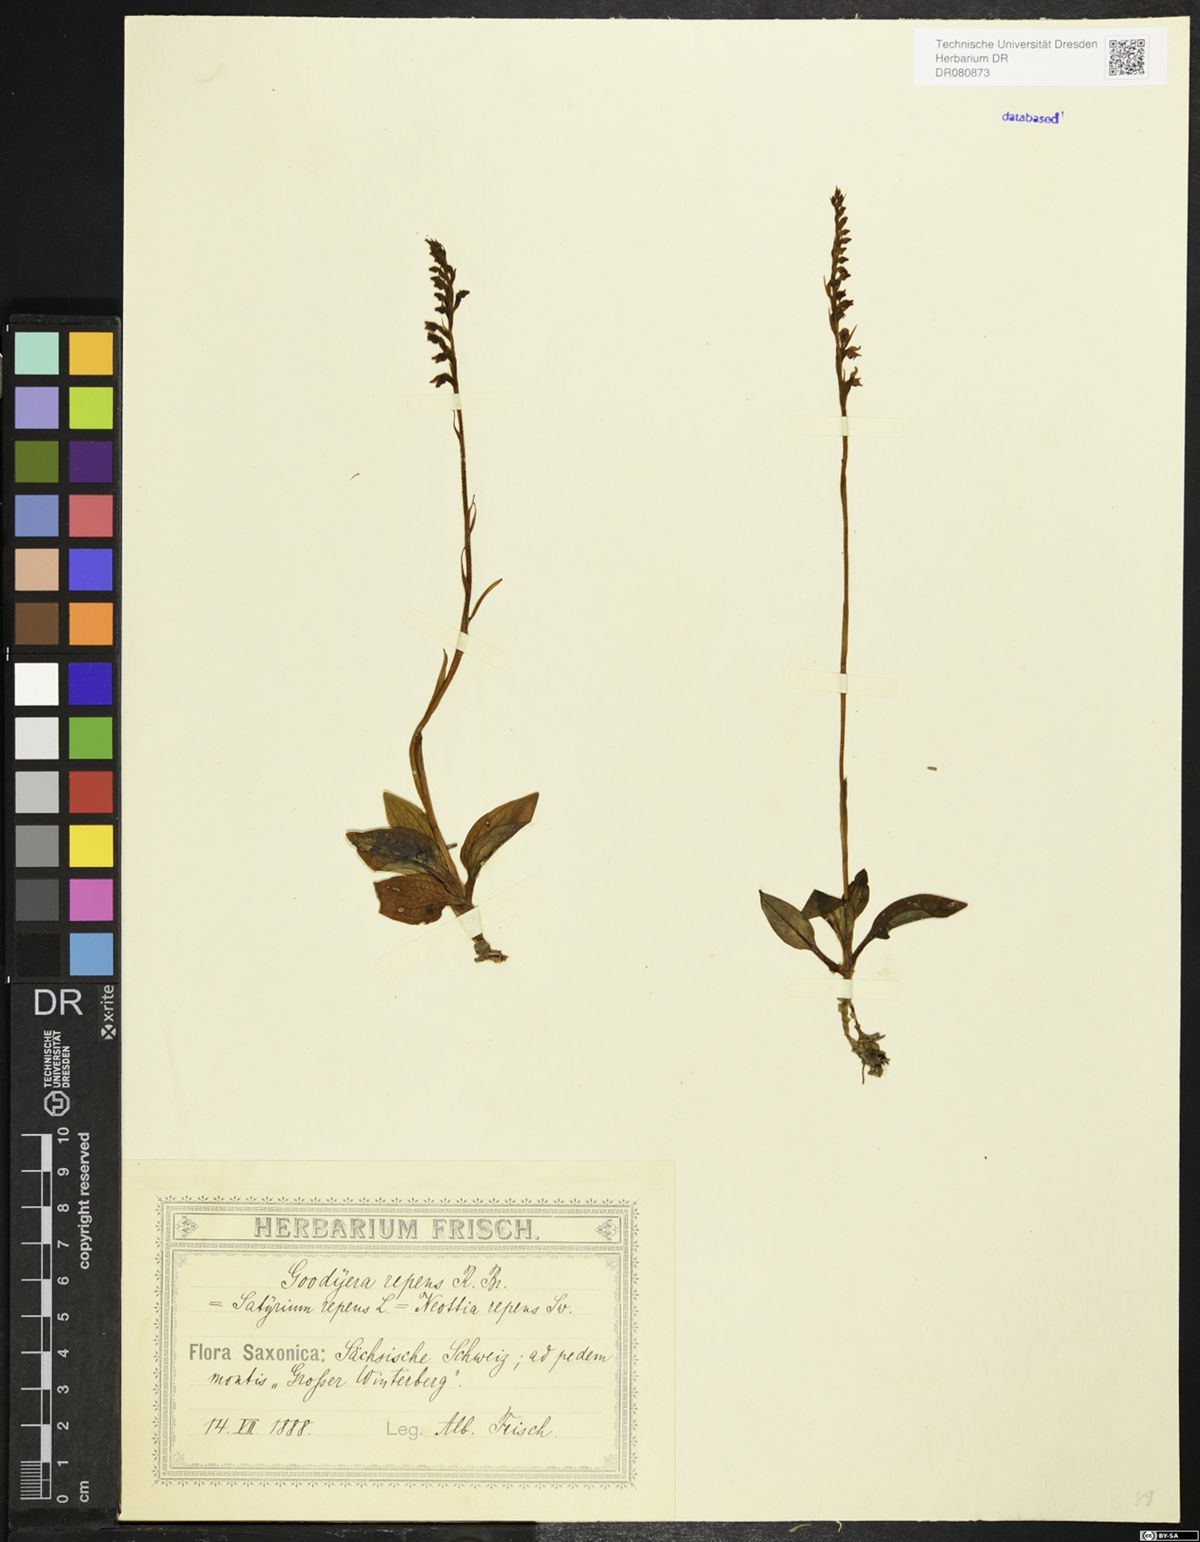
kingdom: Plantae
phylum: Tracheophyta
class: Liliopsida
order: Asparagales
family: Orchidaceae
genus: Goodyera
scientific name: Goodyera repens
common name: Creeping lady's-tresses
